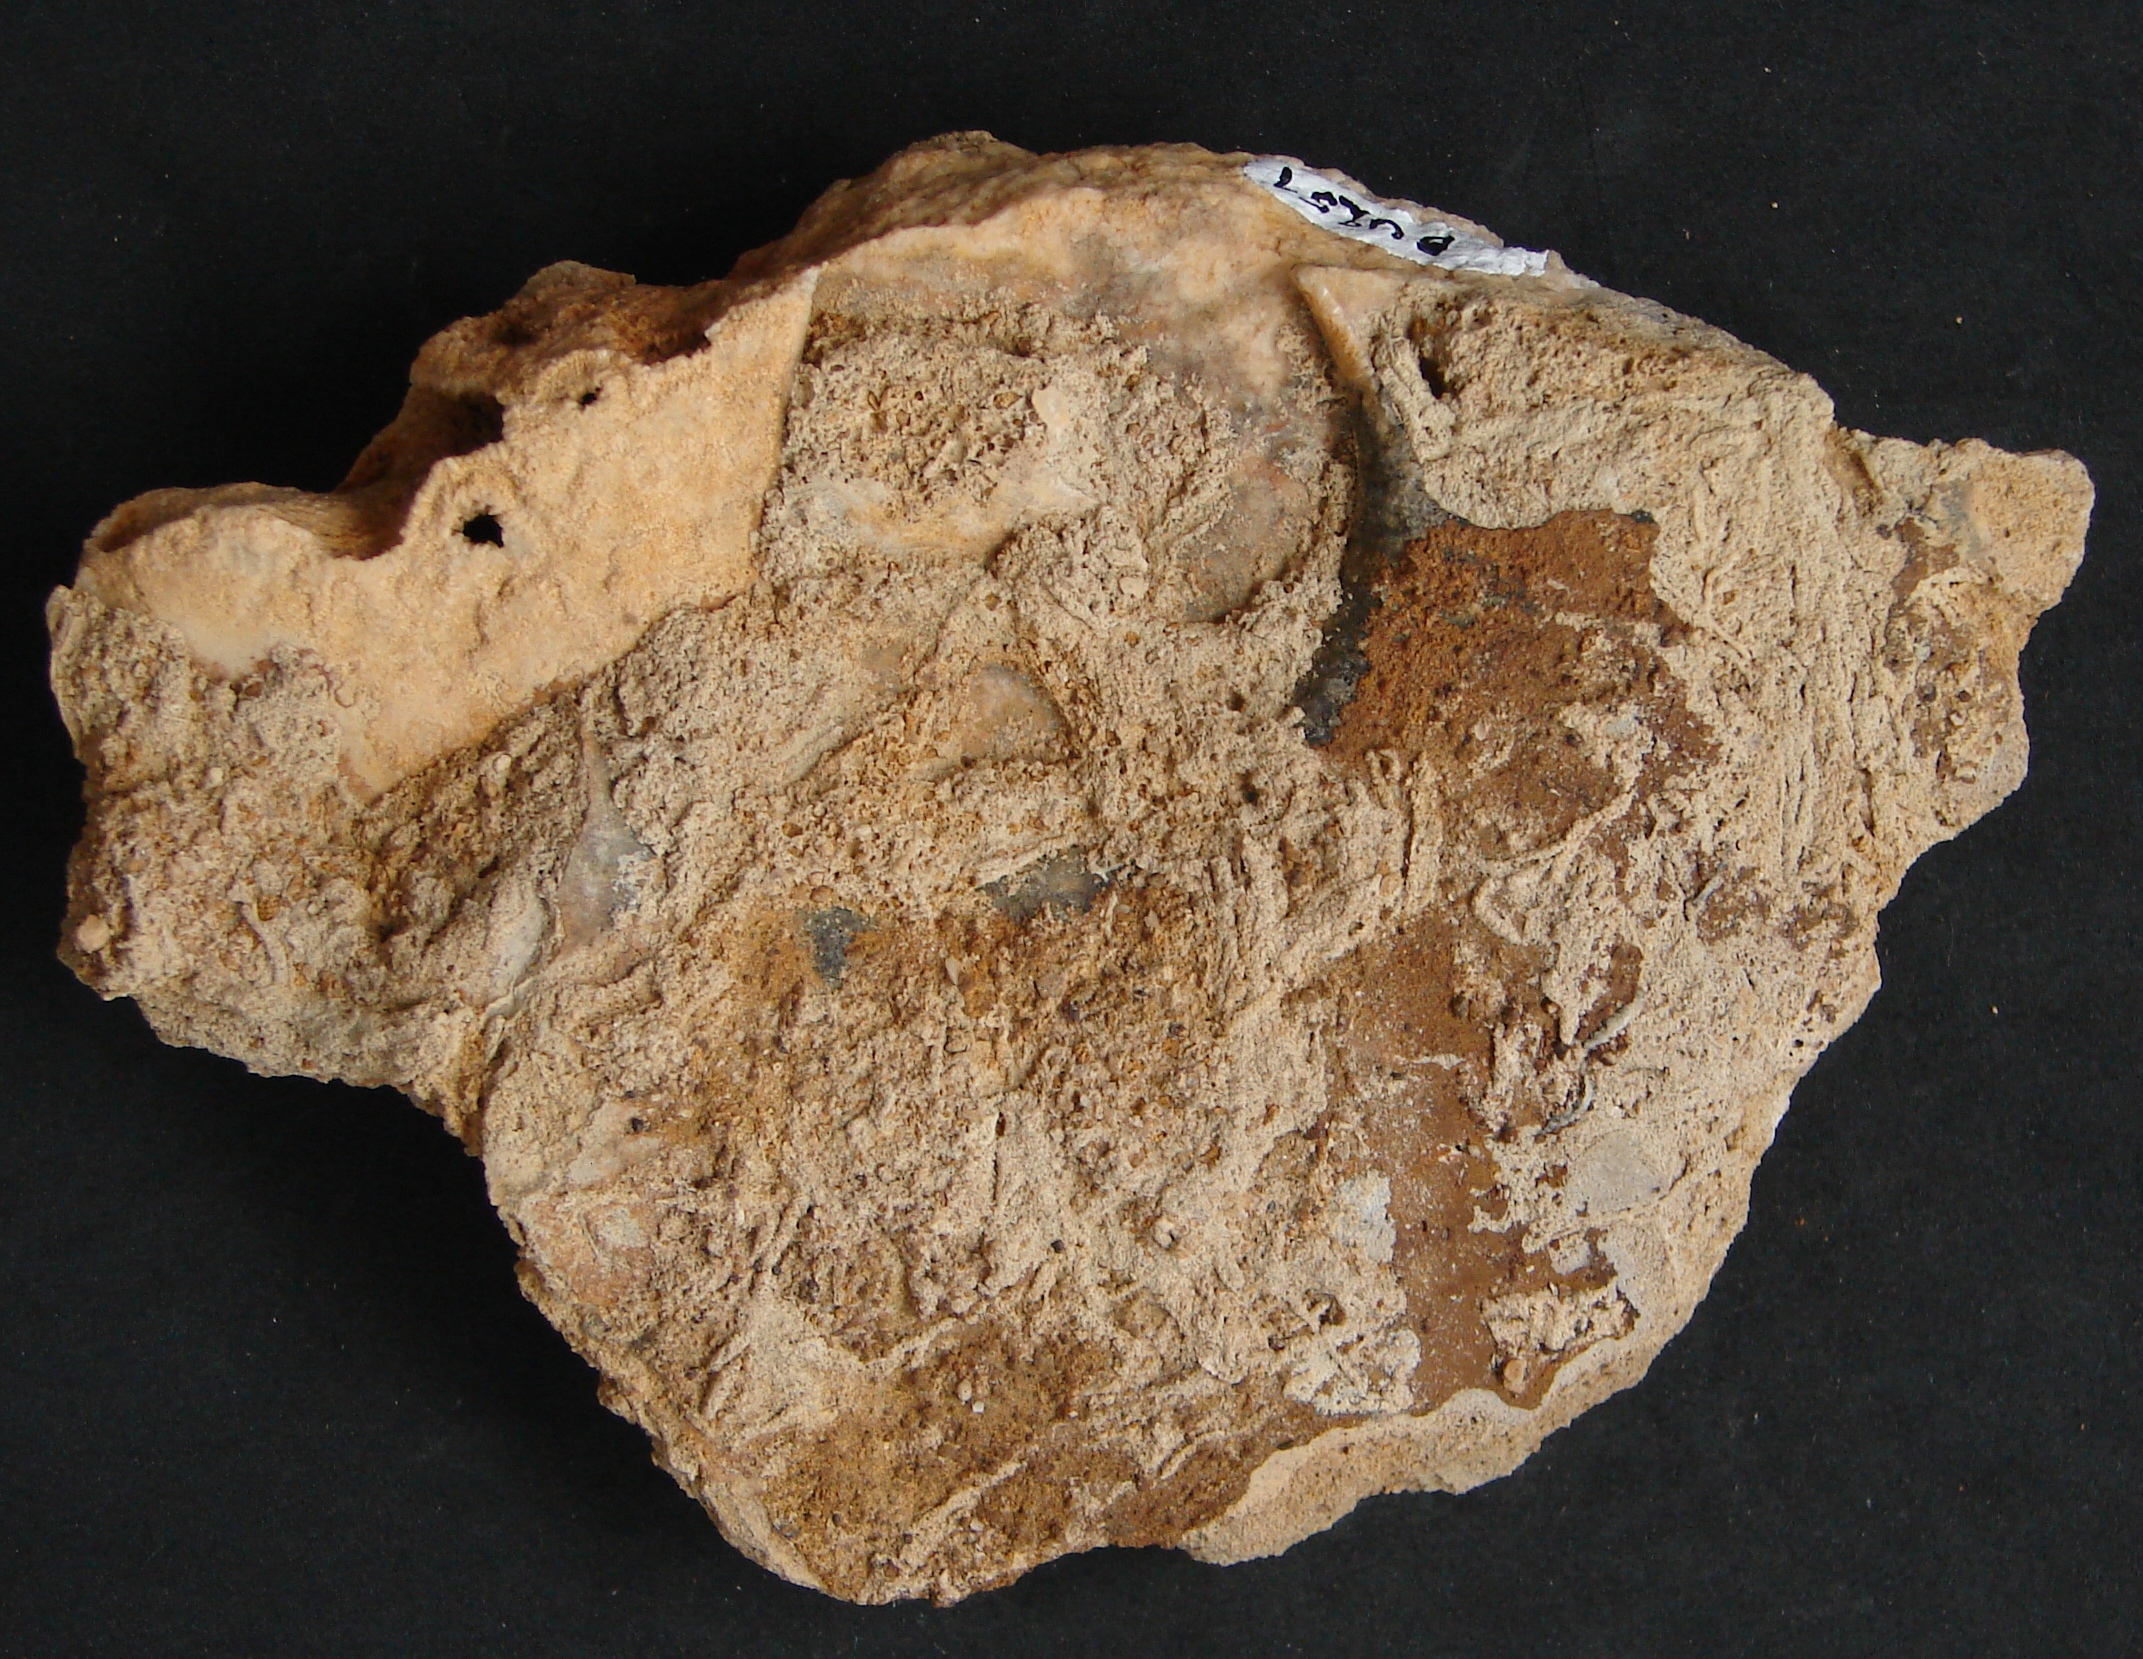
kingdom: Animalia
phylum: Mollusca
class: Cephalopoda
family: Graphoceratidae
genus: Hyperlioceras
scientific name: Hyperlioceras
